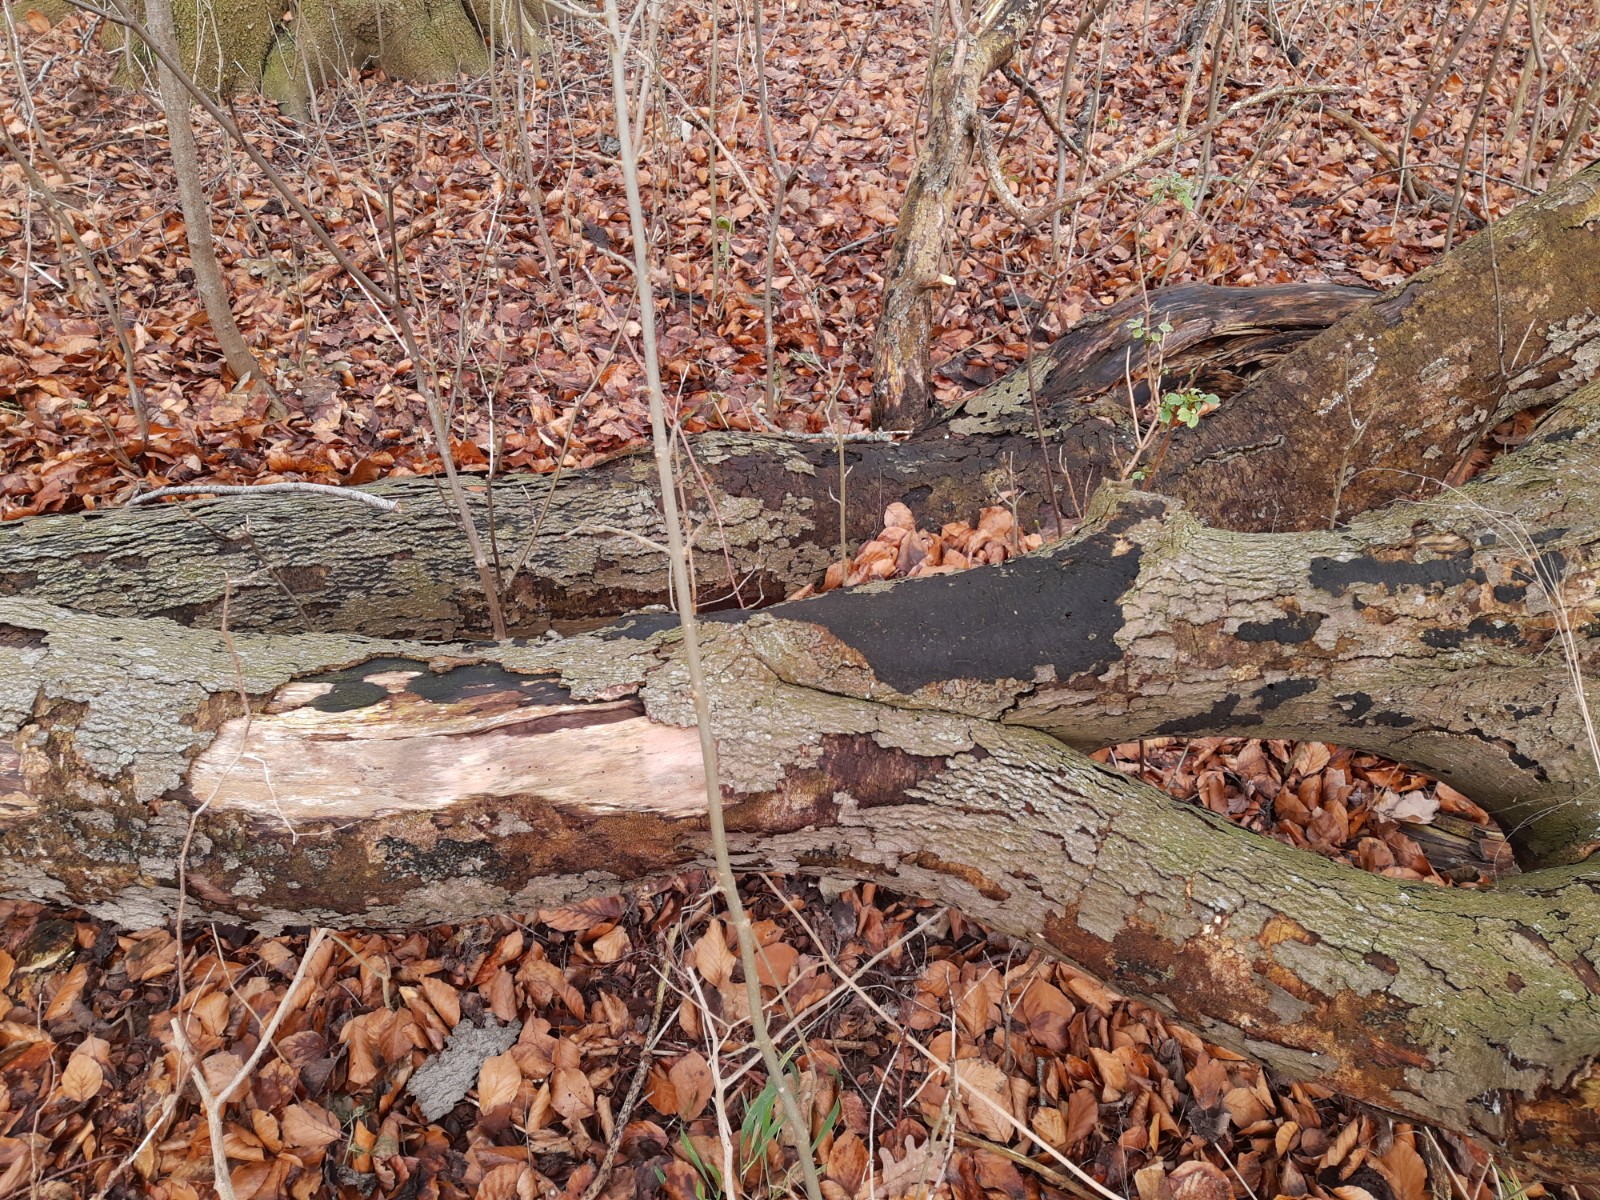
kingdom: Fungi
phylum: Ascomycota
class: Sordariomycetes
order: Xylariales
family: Diatrypaceae
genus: Eutypa
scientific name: Eutypa spinosa
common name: grov kulskorpe
